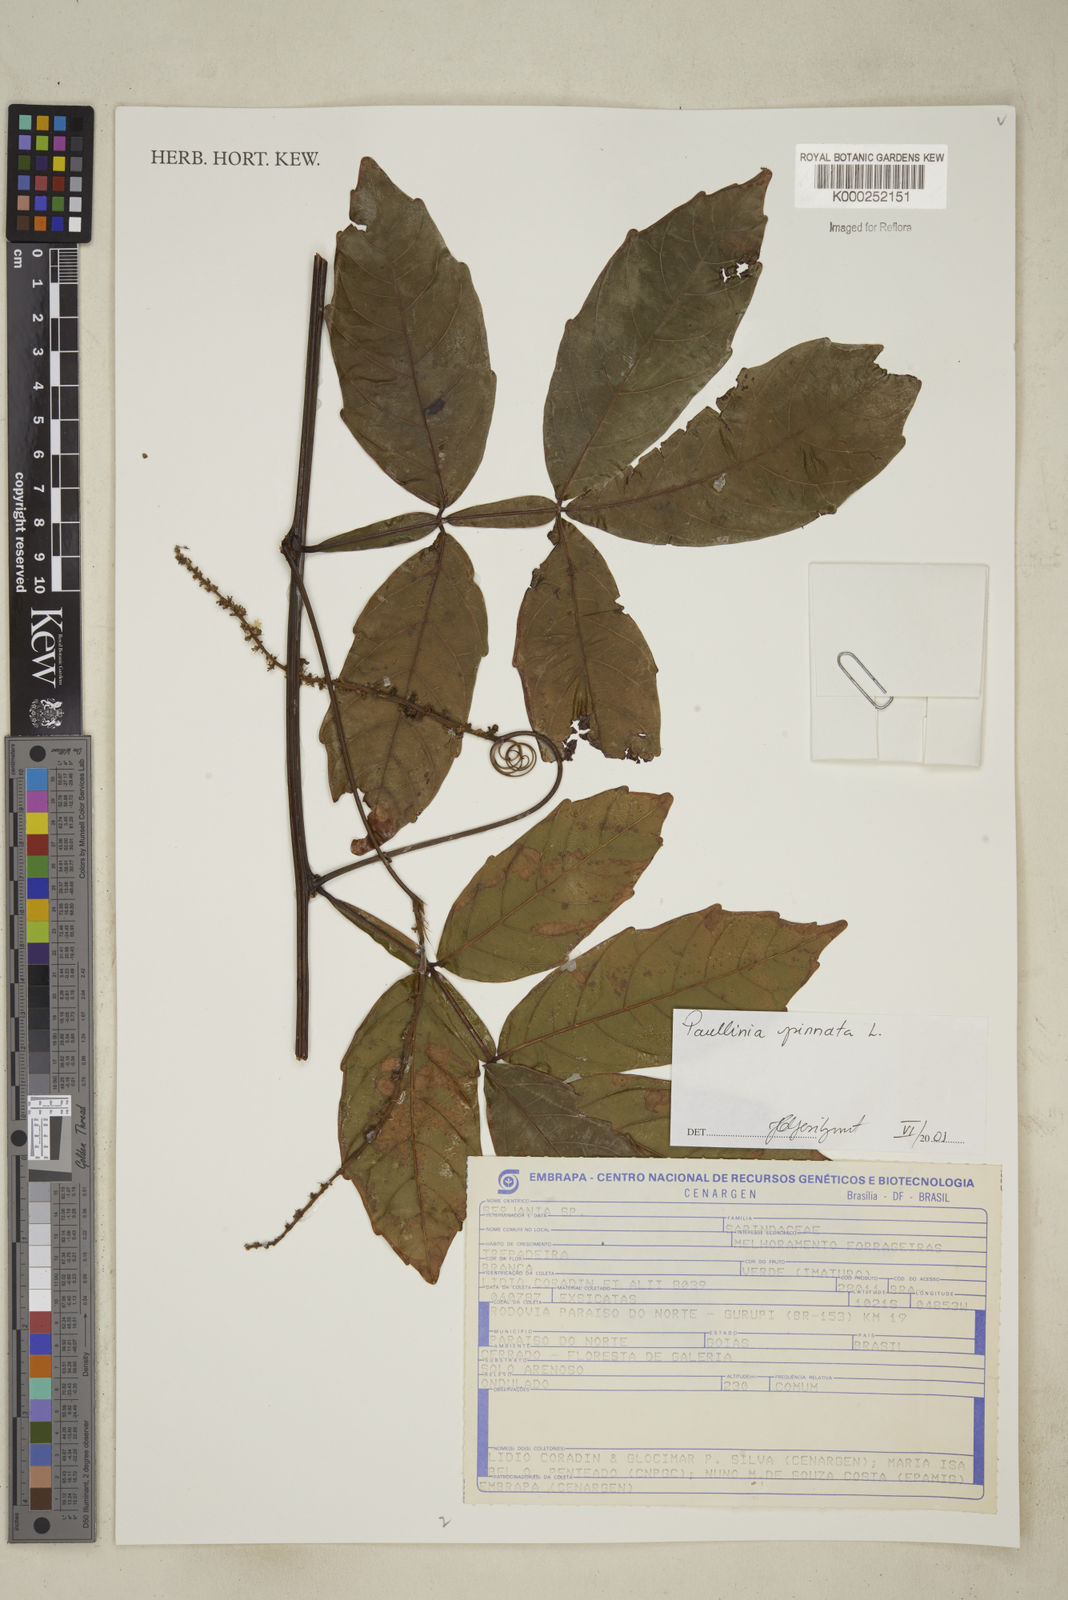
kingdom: Plantae
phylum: Tracheophyta
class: Magnoliopsida
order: Sapindales
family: Sapindaceae
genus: Paullinia
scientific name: Paullinia pinnata
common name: Barbasco
